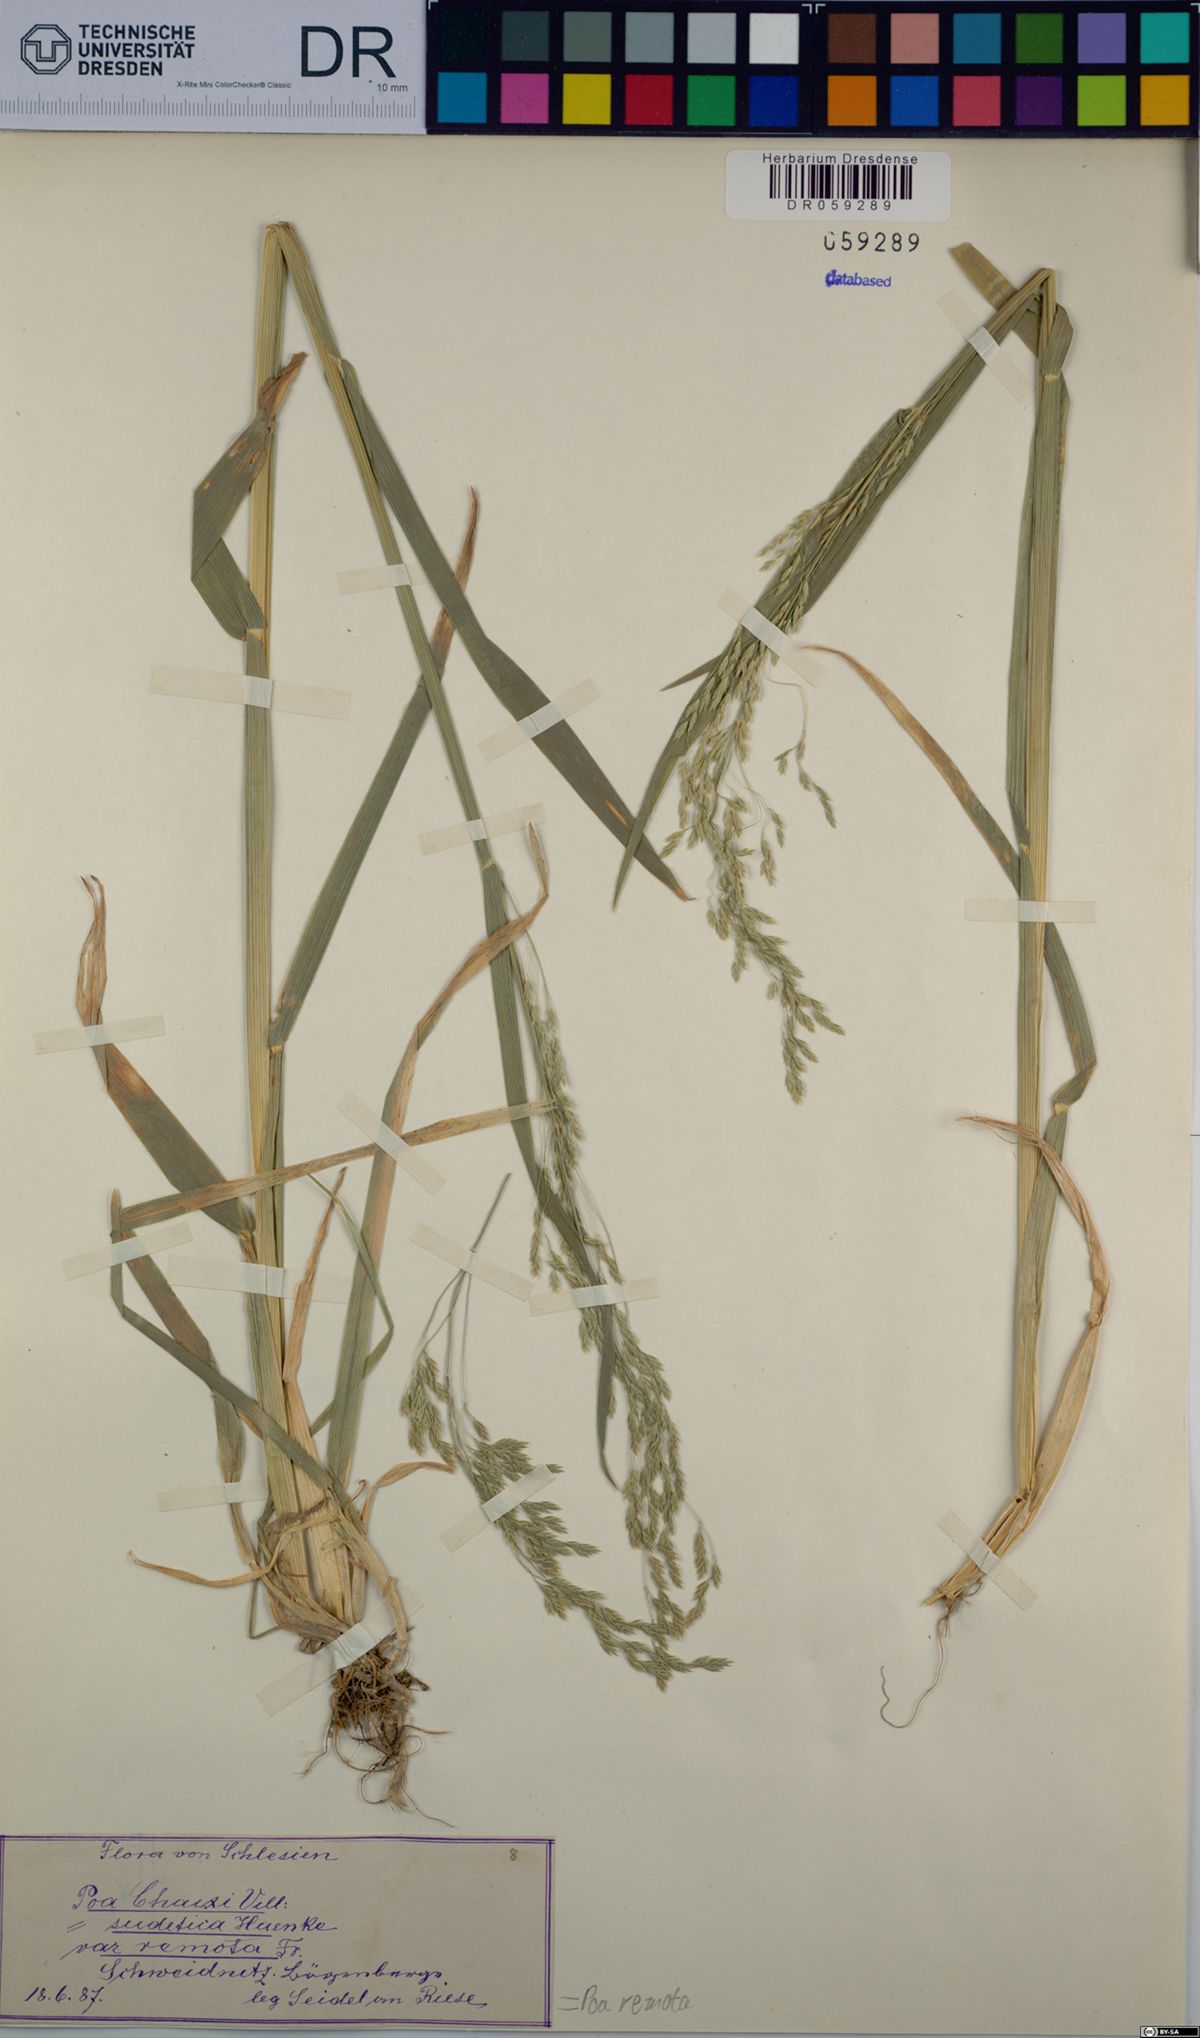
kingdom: Plantae
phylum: Tracheophyta
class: Liliopsida
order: Poales
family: Poaceae
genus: Poa
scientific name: Poa remota
